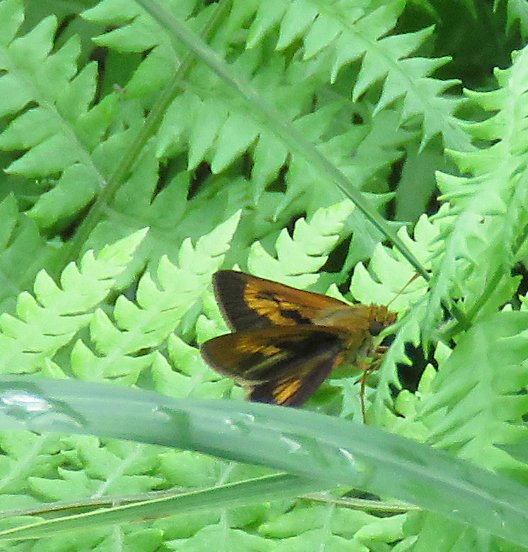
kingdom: Animalia
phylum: Arthropoda
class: Insecta
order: Lepidoptera
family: Hesperiidae
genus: Euphyes
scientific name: Euphyes conspicua
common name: Black Dash
